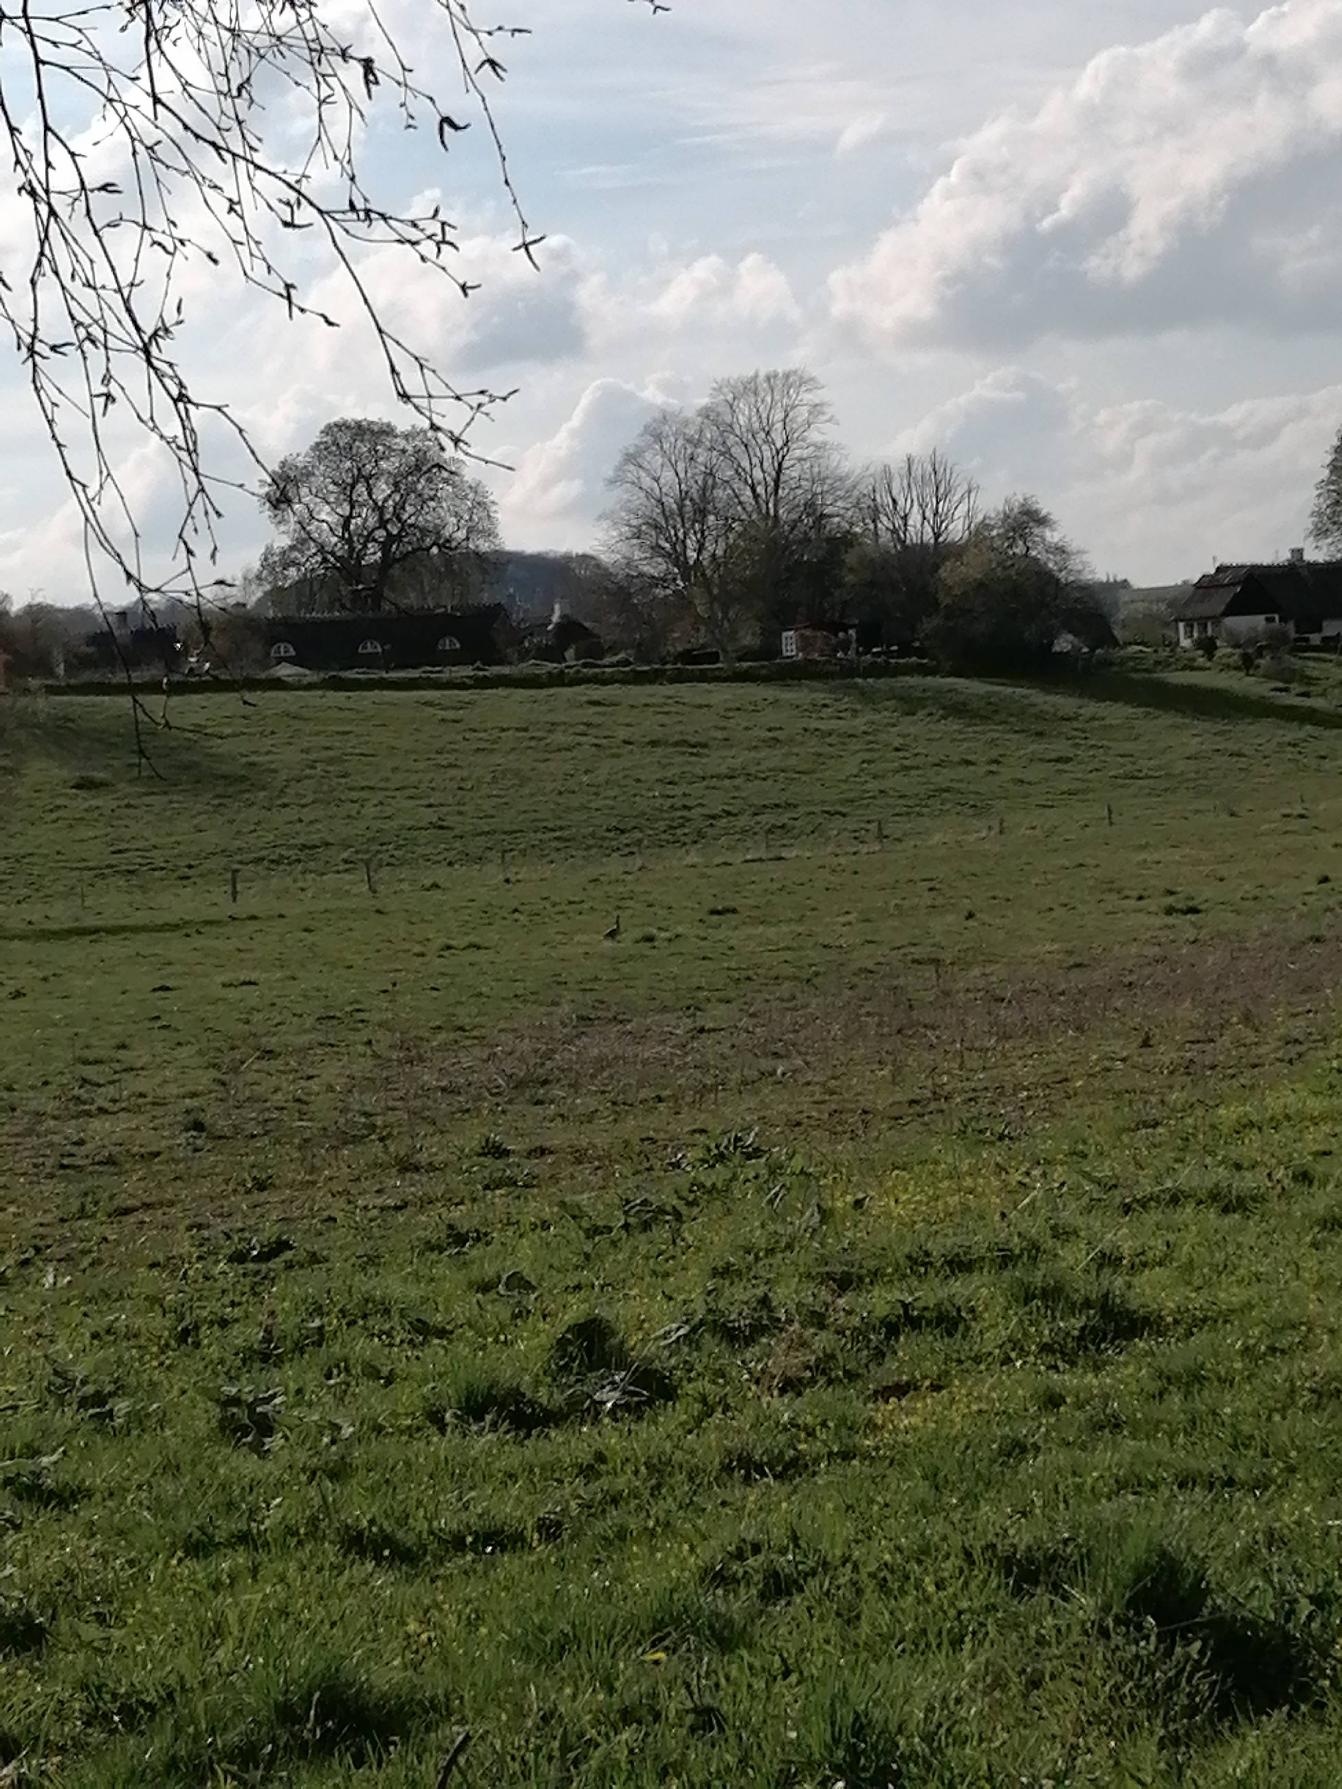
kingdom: Animalia
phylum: Chordata
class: Aves
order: Pelecaniformes
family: Ardeidae
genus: Ardea
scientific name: Ardea cinerea
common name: Fiskehejre
